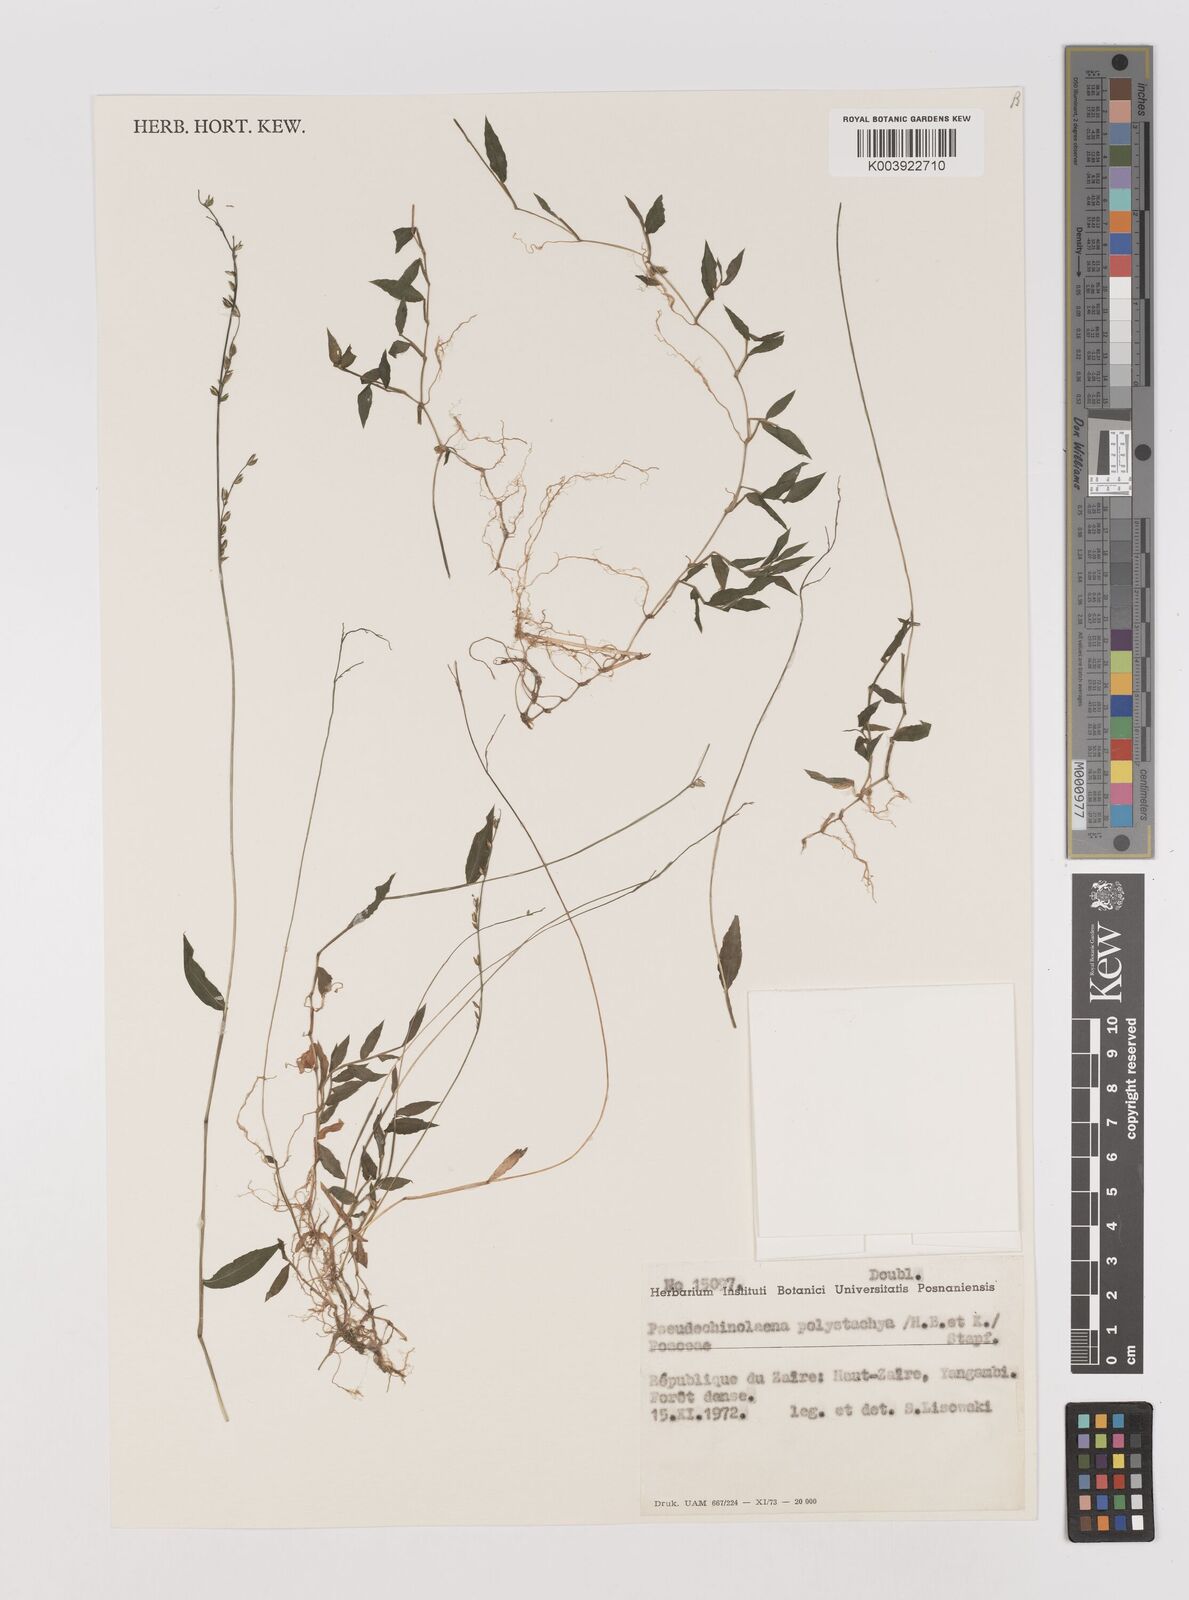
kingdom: Plantae
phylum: Tracheophyta
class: Liliopsida
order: Poales
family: Poaceae
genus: Pseudechinolaena
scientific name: Pseudechinolaena polystachya
